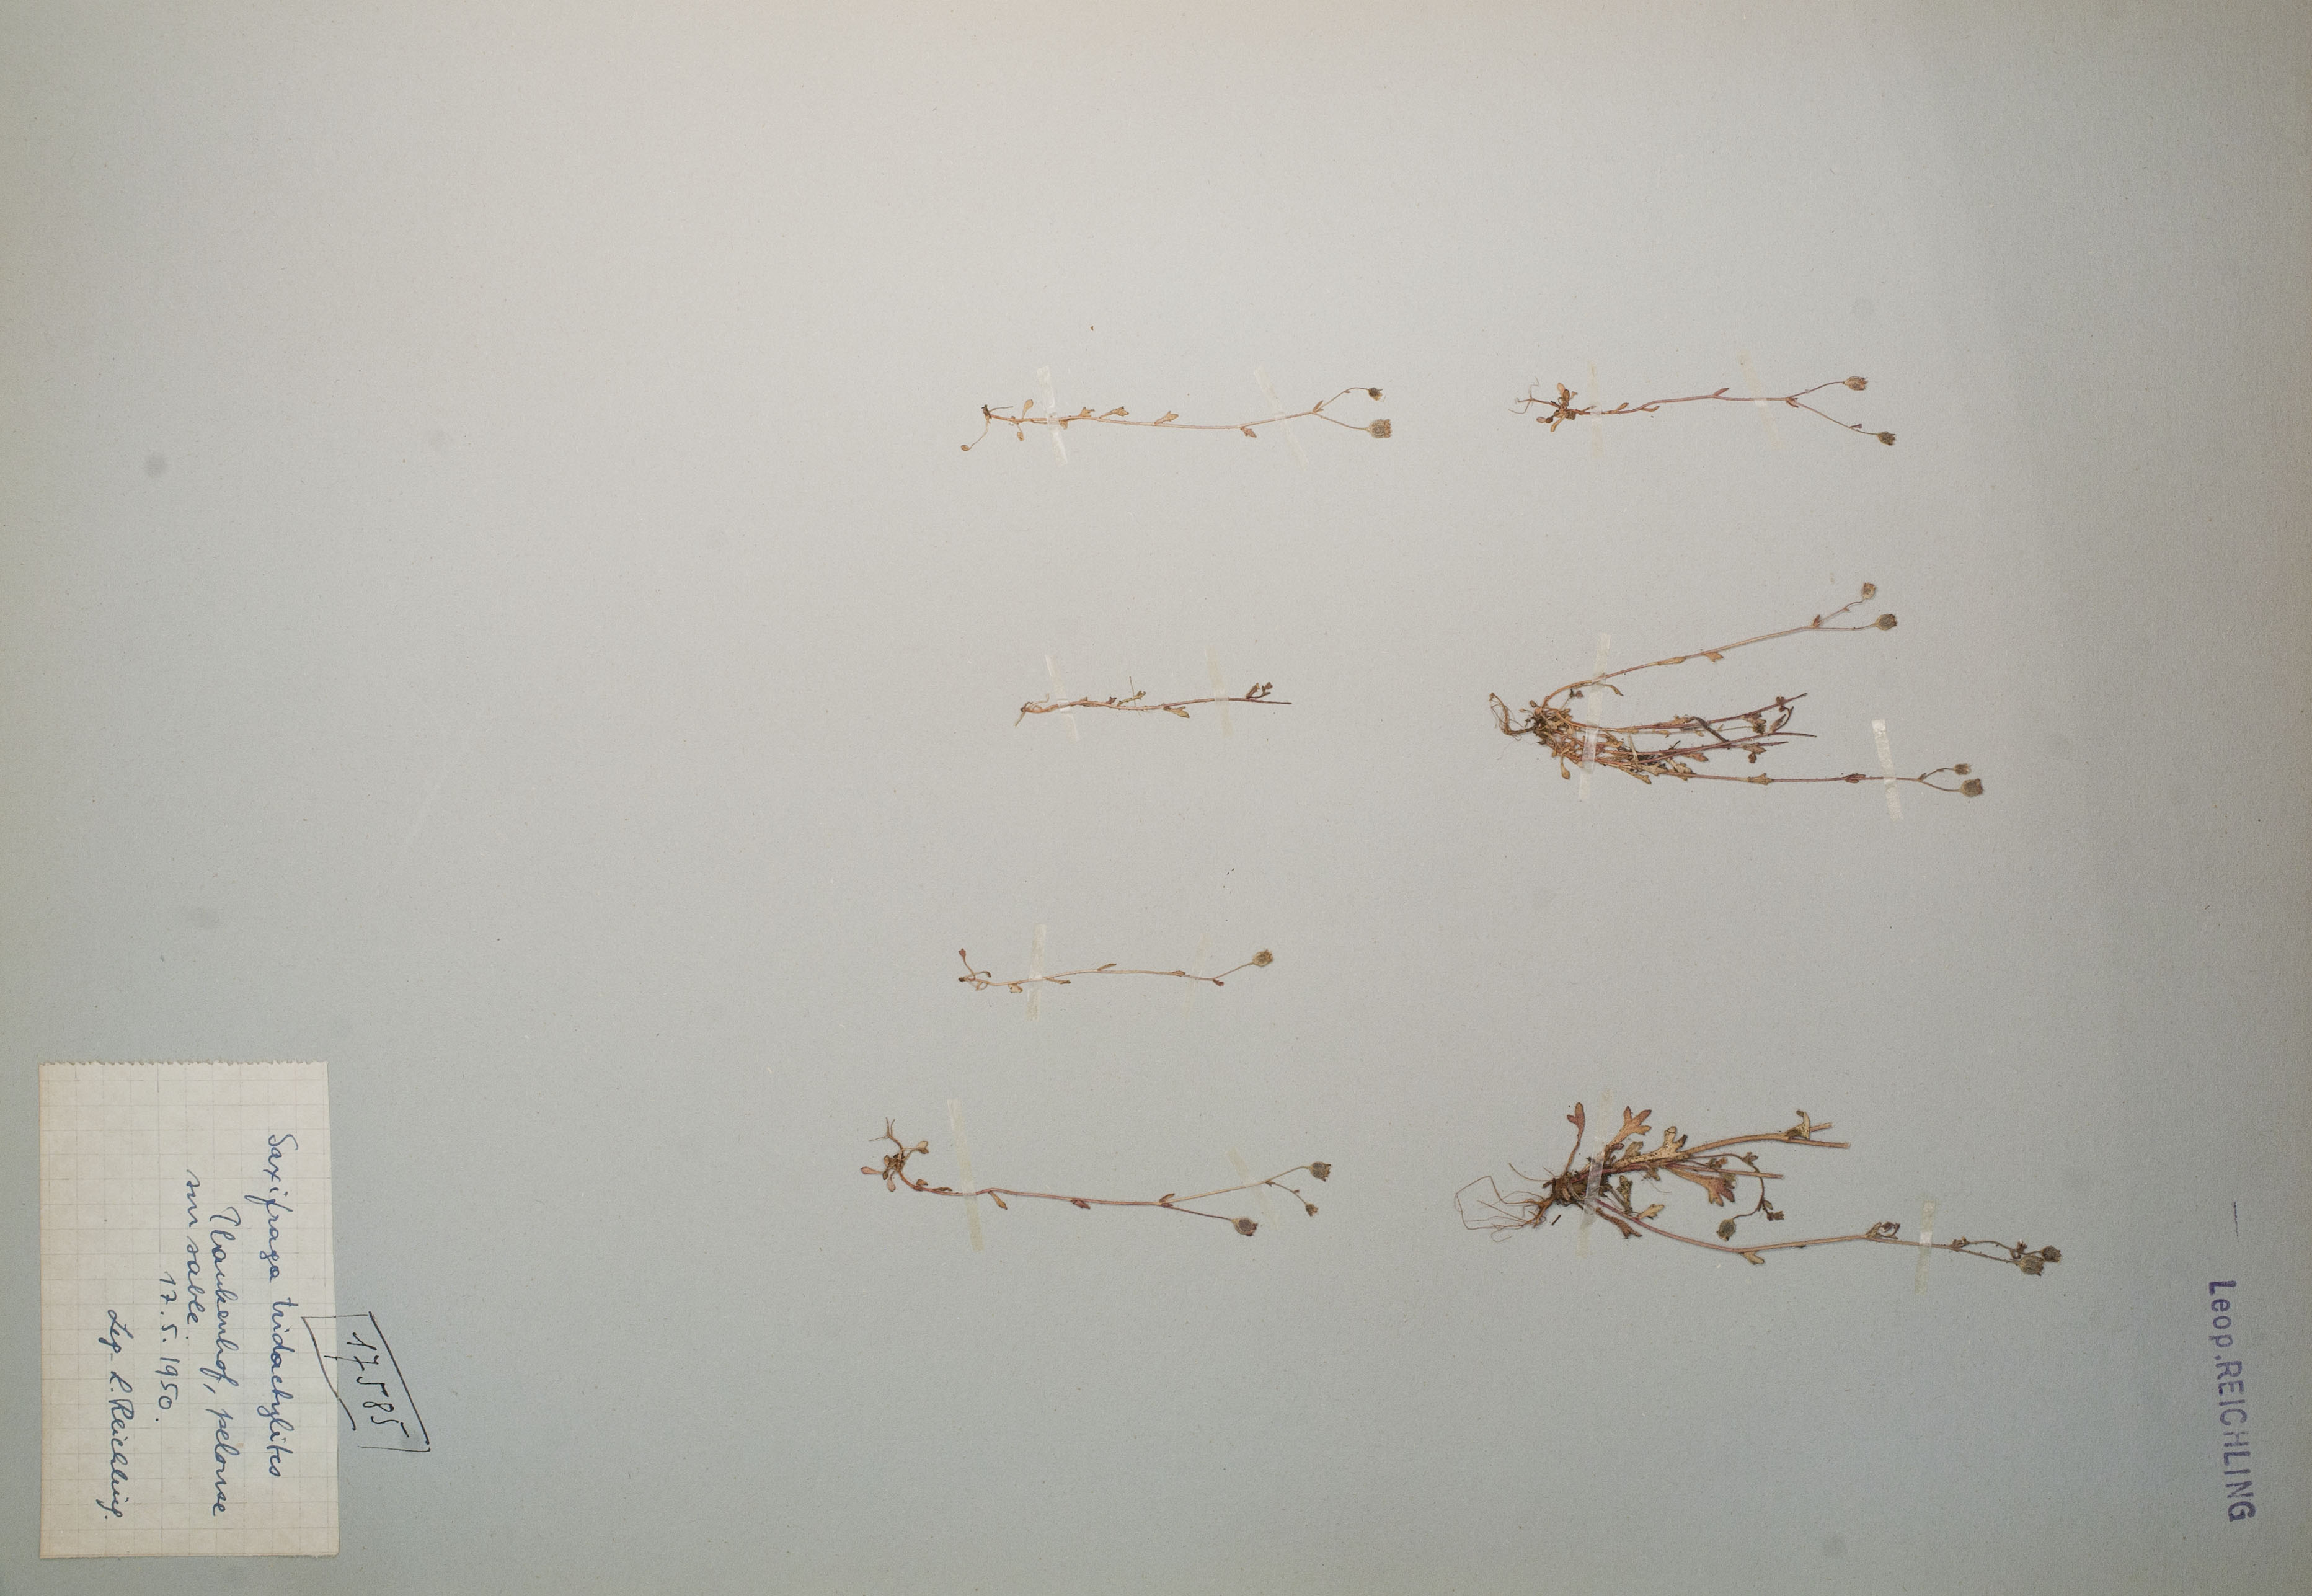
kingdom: Plantae
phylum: Tracheophyta
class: Magnoliopsida
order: Saxifragales
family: Saxifragaceae
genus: Saxifraga
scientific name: Saxifraga tridactylites
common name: Rue-leaved saxifrage
